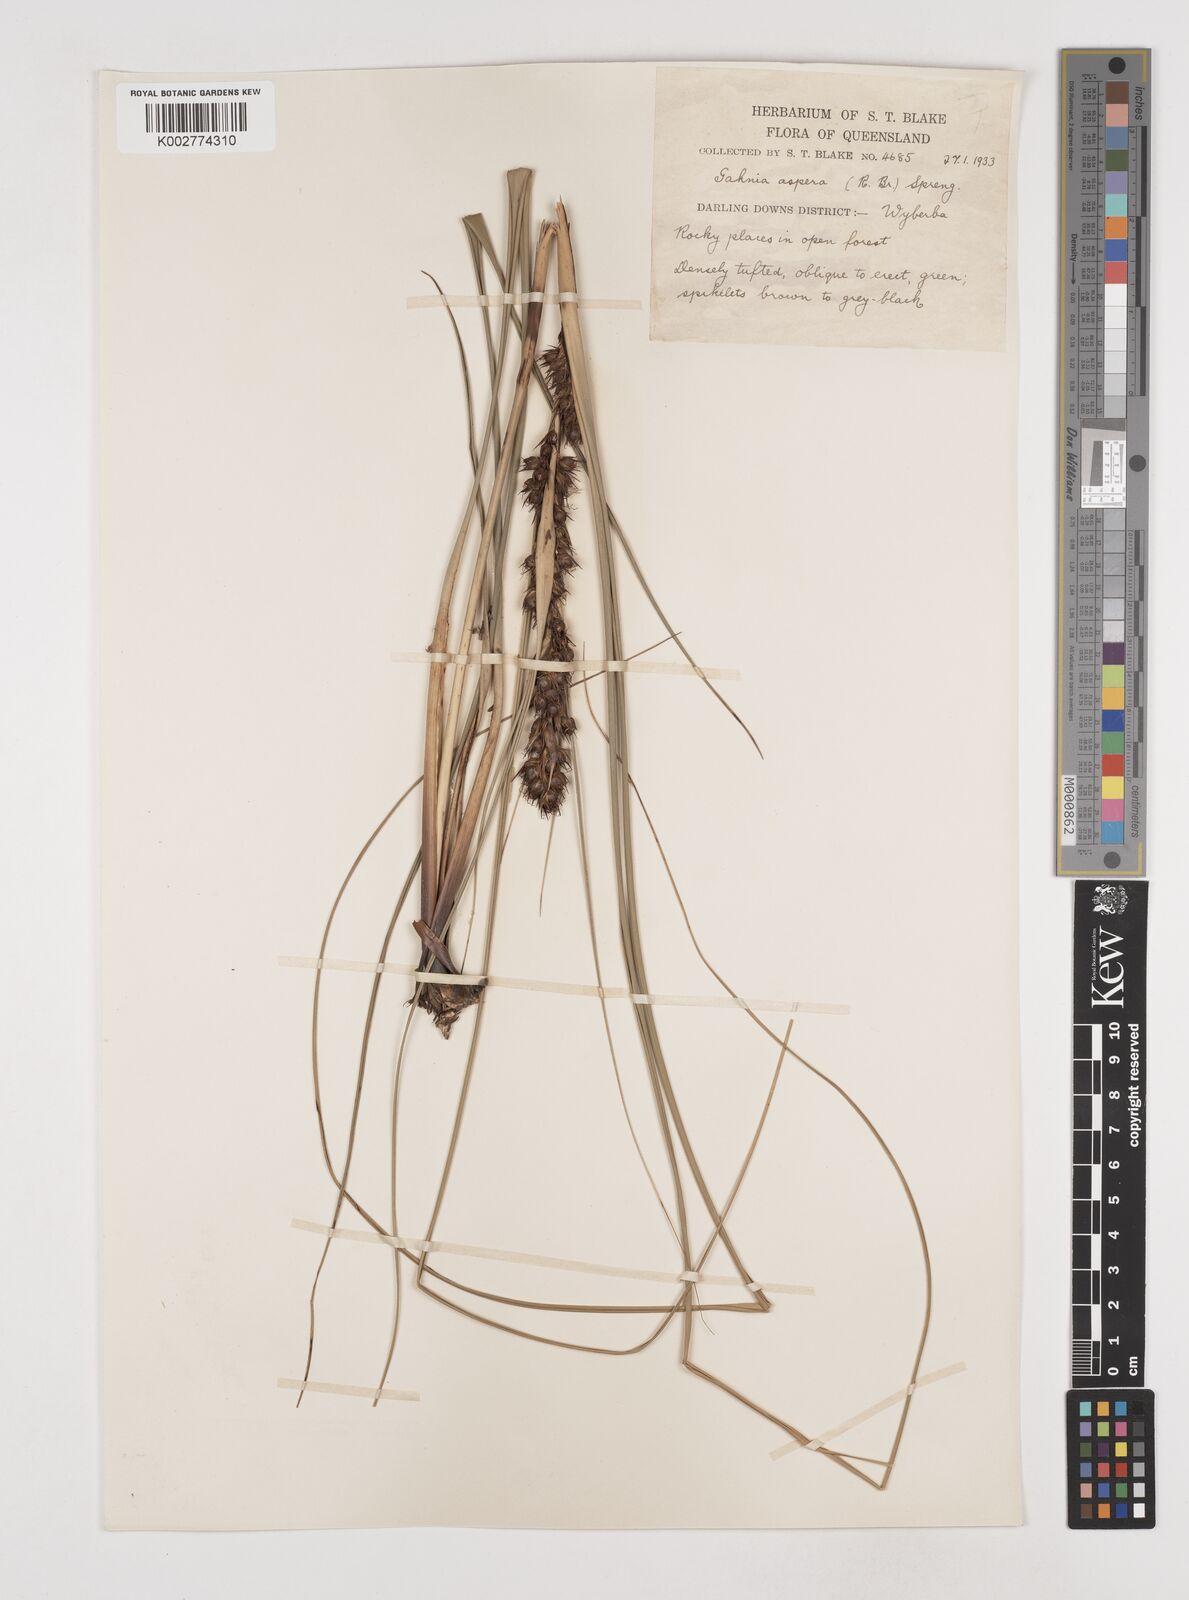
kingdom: Plantae
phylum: Tracheophyta
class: Liliopsida
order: Poales
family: Cyperaceae
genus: Gahnia
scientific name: Gahnia aspera
